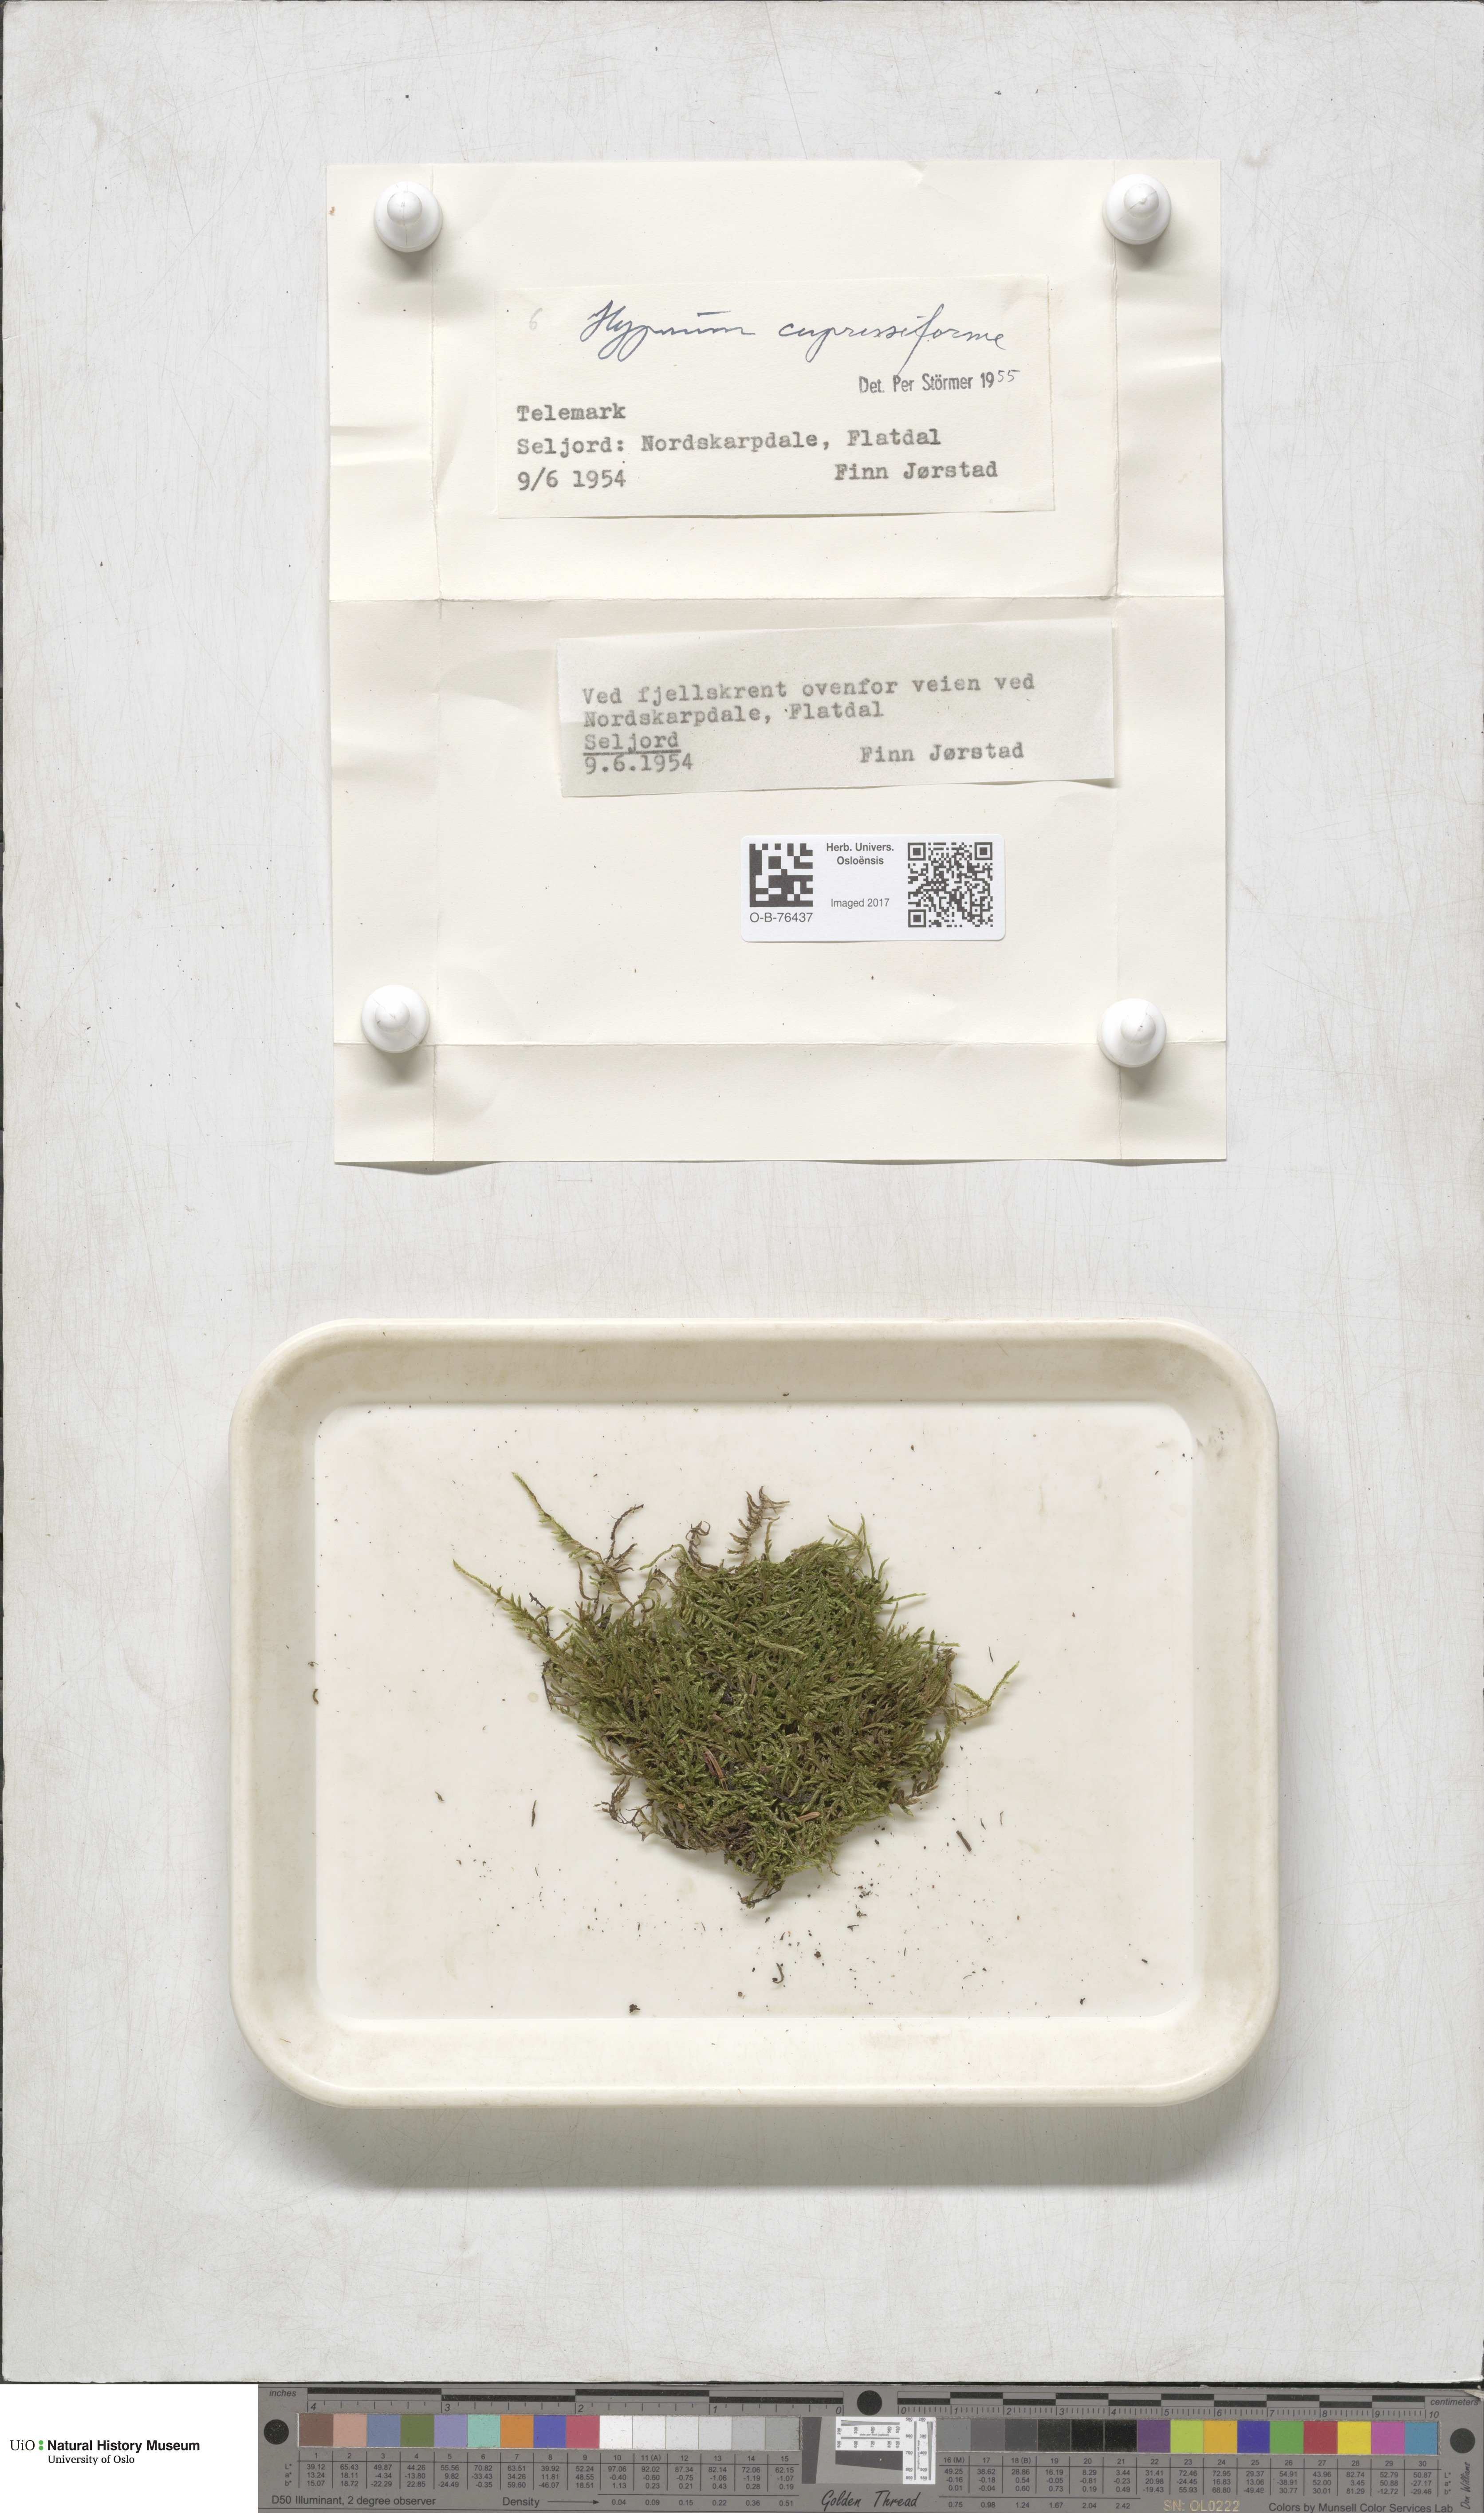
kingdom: Plantae
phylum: Bryophyta
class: Bryopsida
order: Hypnales
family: Hypnaceae
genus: Hypnum
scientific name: Hypnum cupressiforme
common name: Cypress-leaved plait-moss
